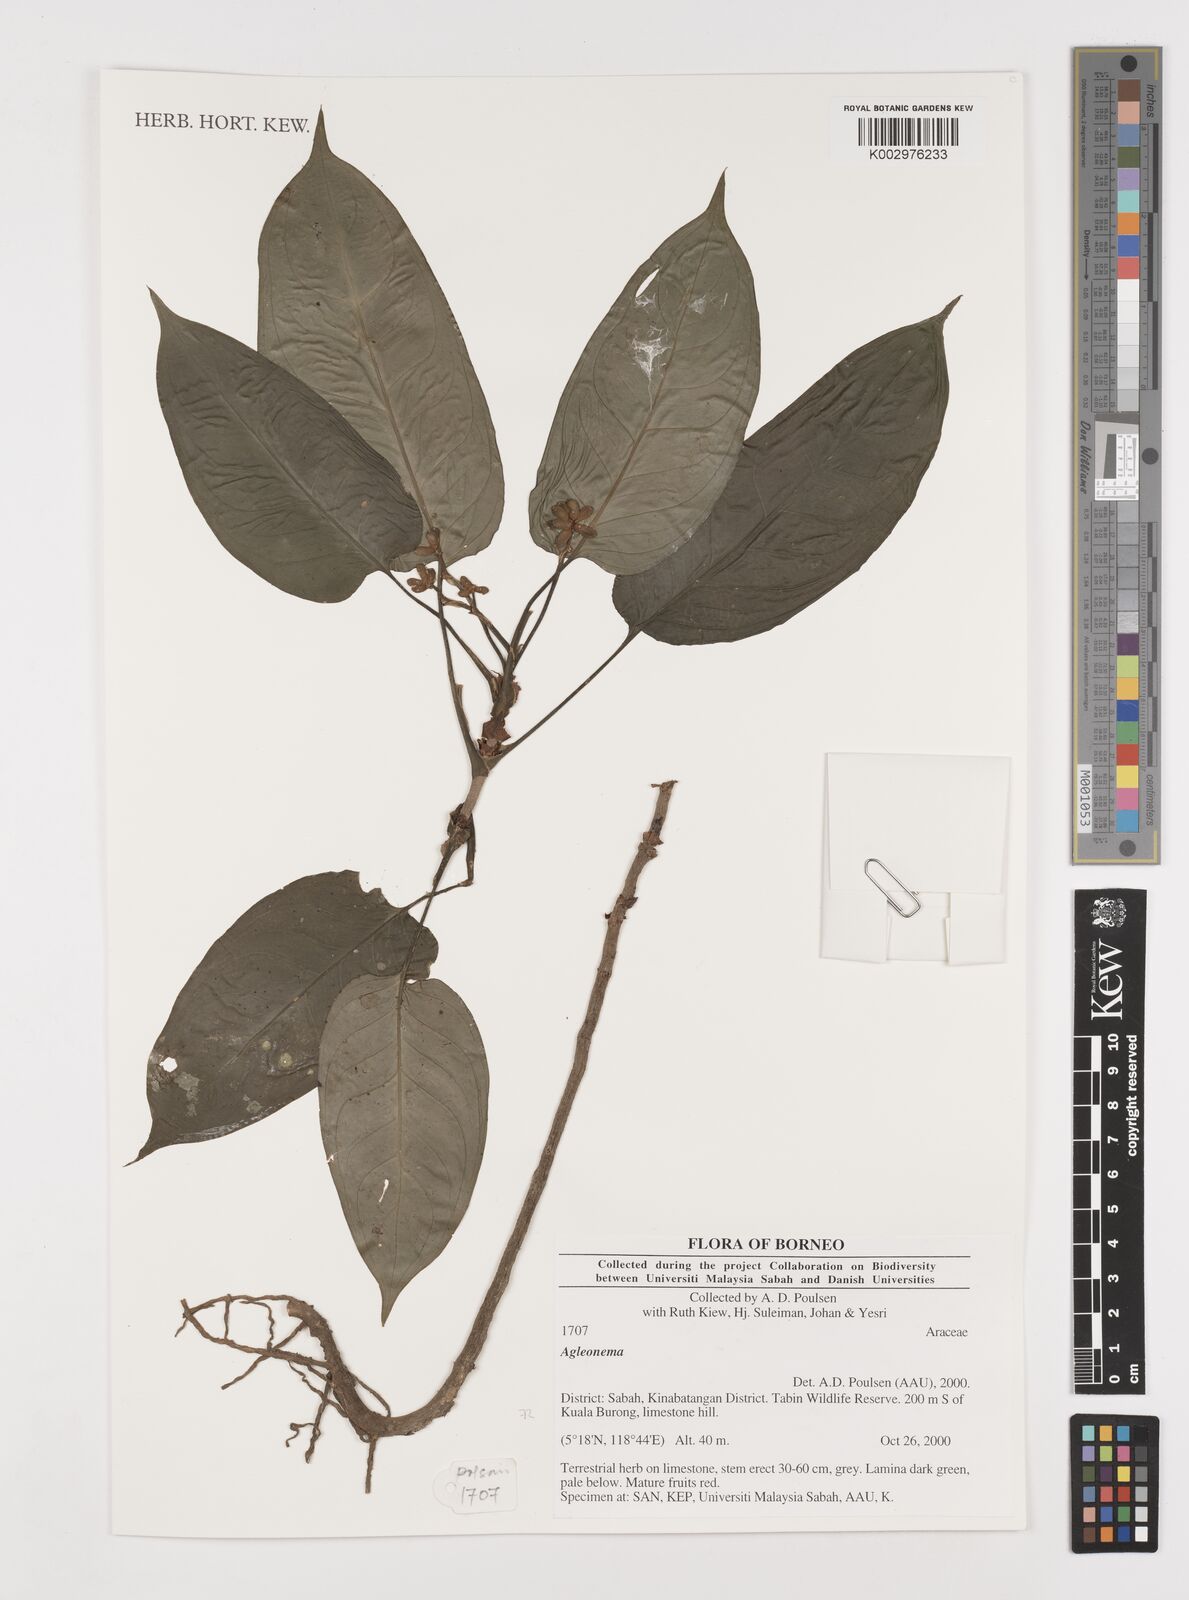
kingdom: Plantae
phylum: Tracheophyta
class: Liliopsida
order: Alismatales
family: Araceae
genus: Aglaonema
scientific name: Aglaonema
